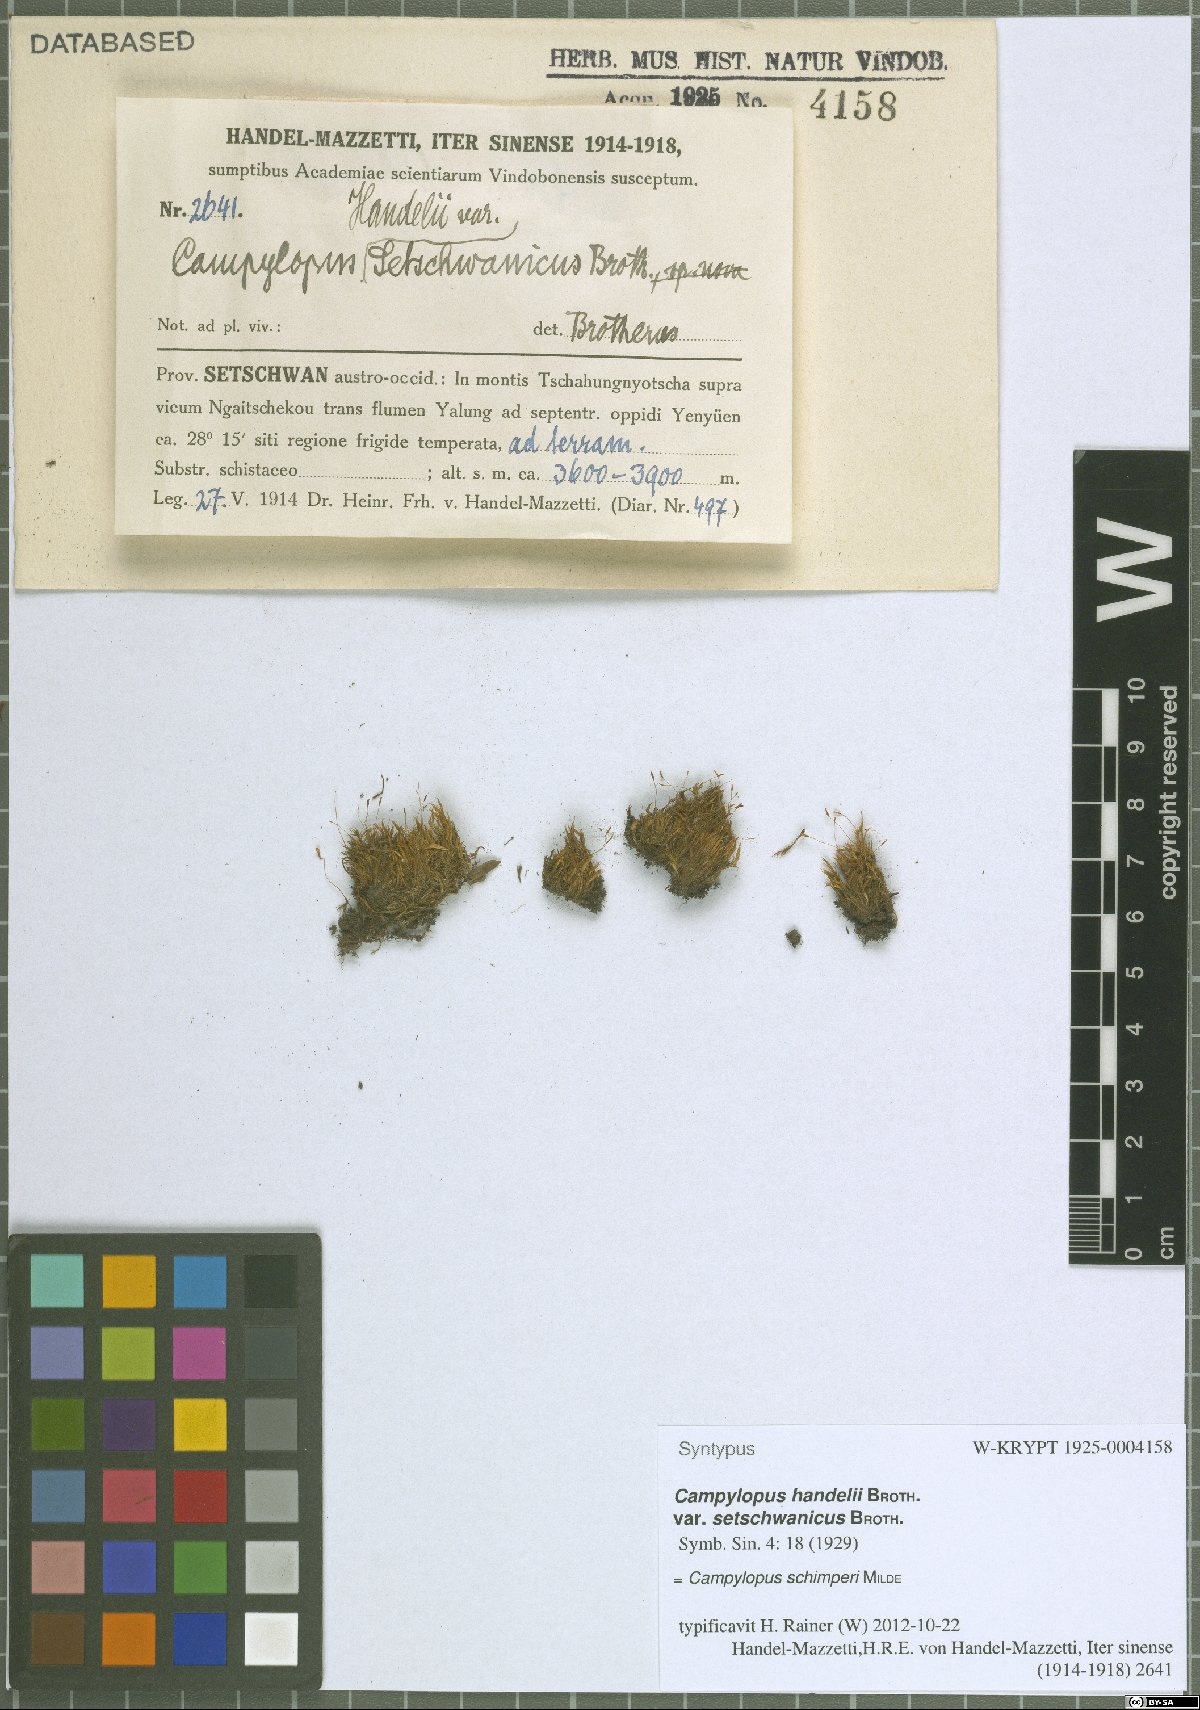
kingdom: Plantae
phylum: Bryophyta
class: Bryopsida
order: Dicranales
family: Leucobryaceae
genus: Campylopus
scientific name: Campylopus schimperi
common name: Schimper's swan-neck moss
